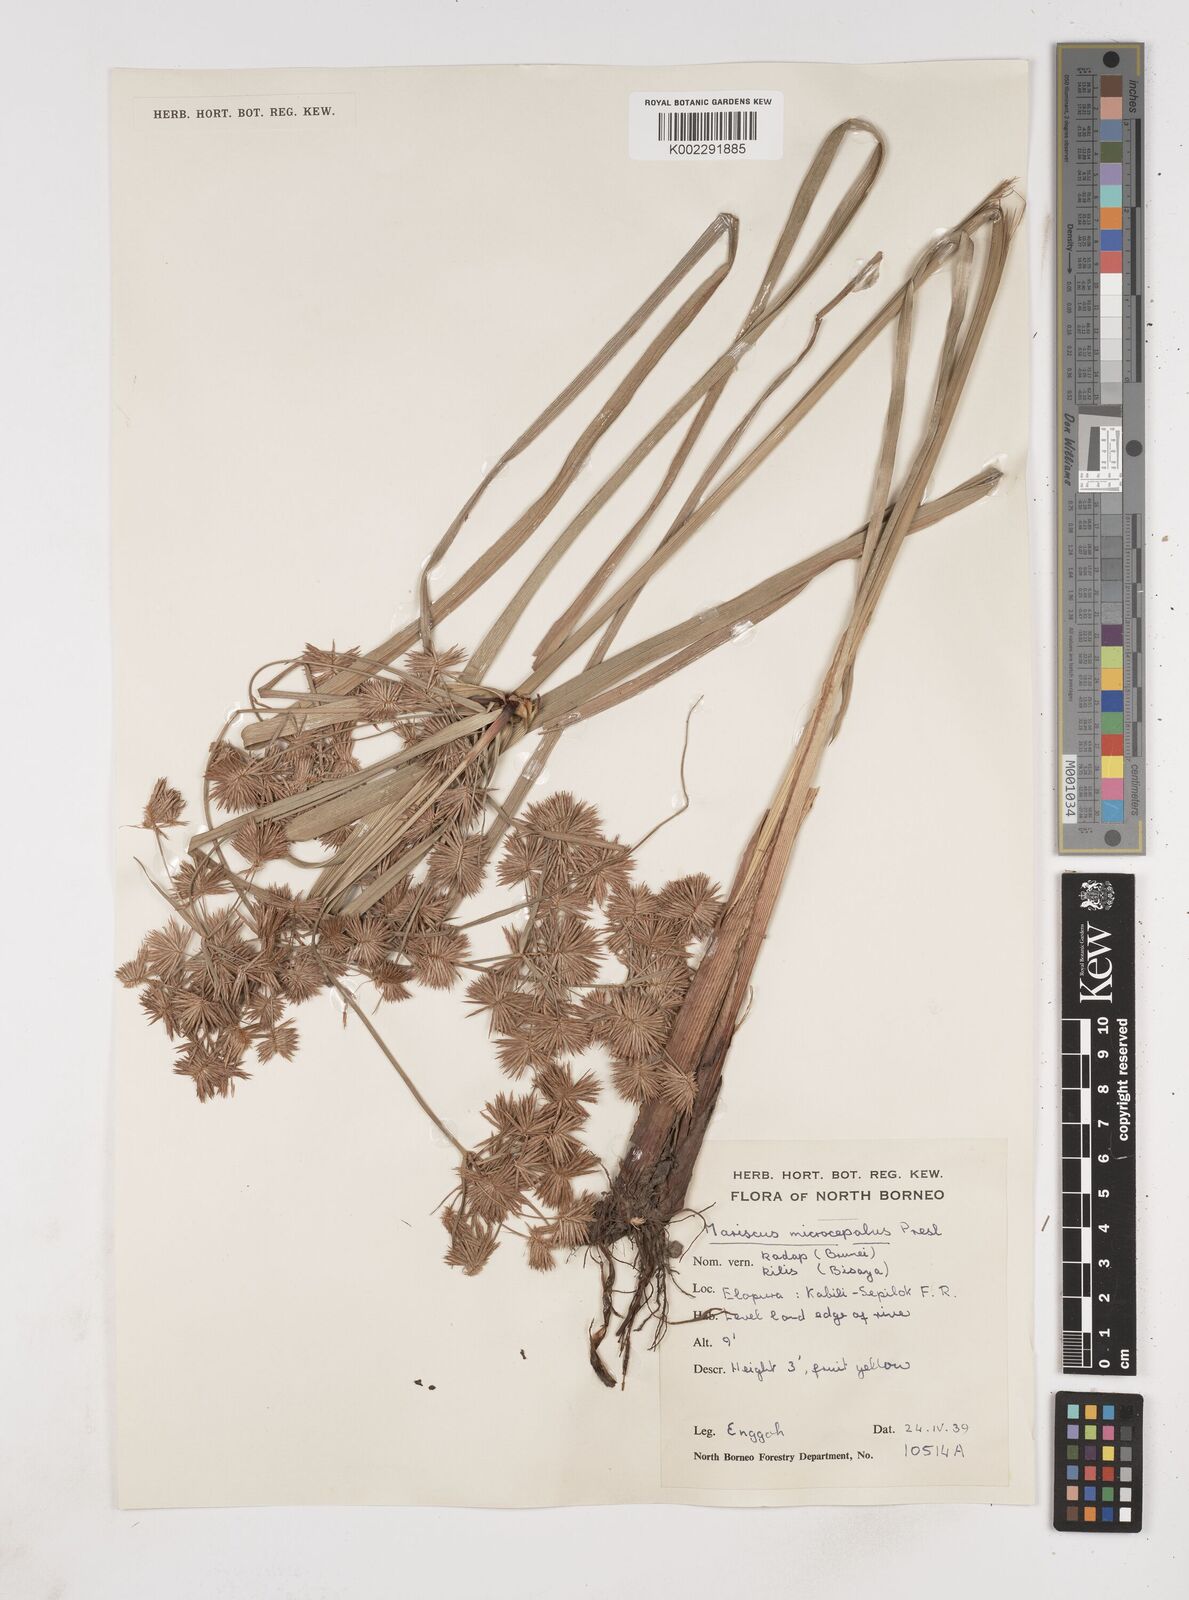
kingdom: Plantae
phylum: Tracheophyta
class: Liliopsida
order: Poales
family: Cyperaceae
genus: Cyperus
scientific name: Cyperus compactus
